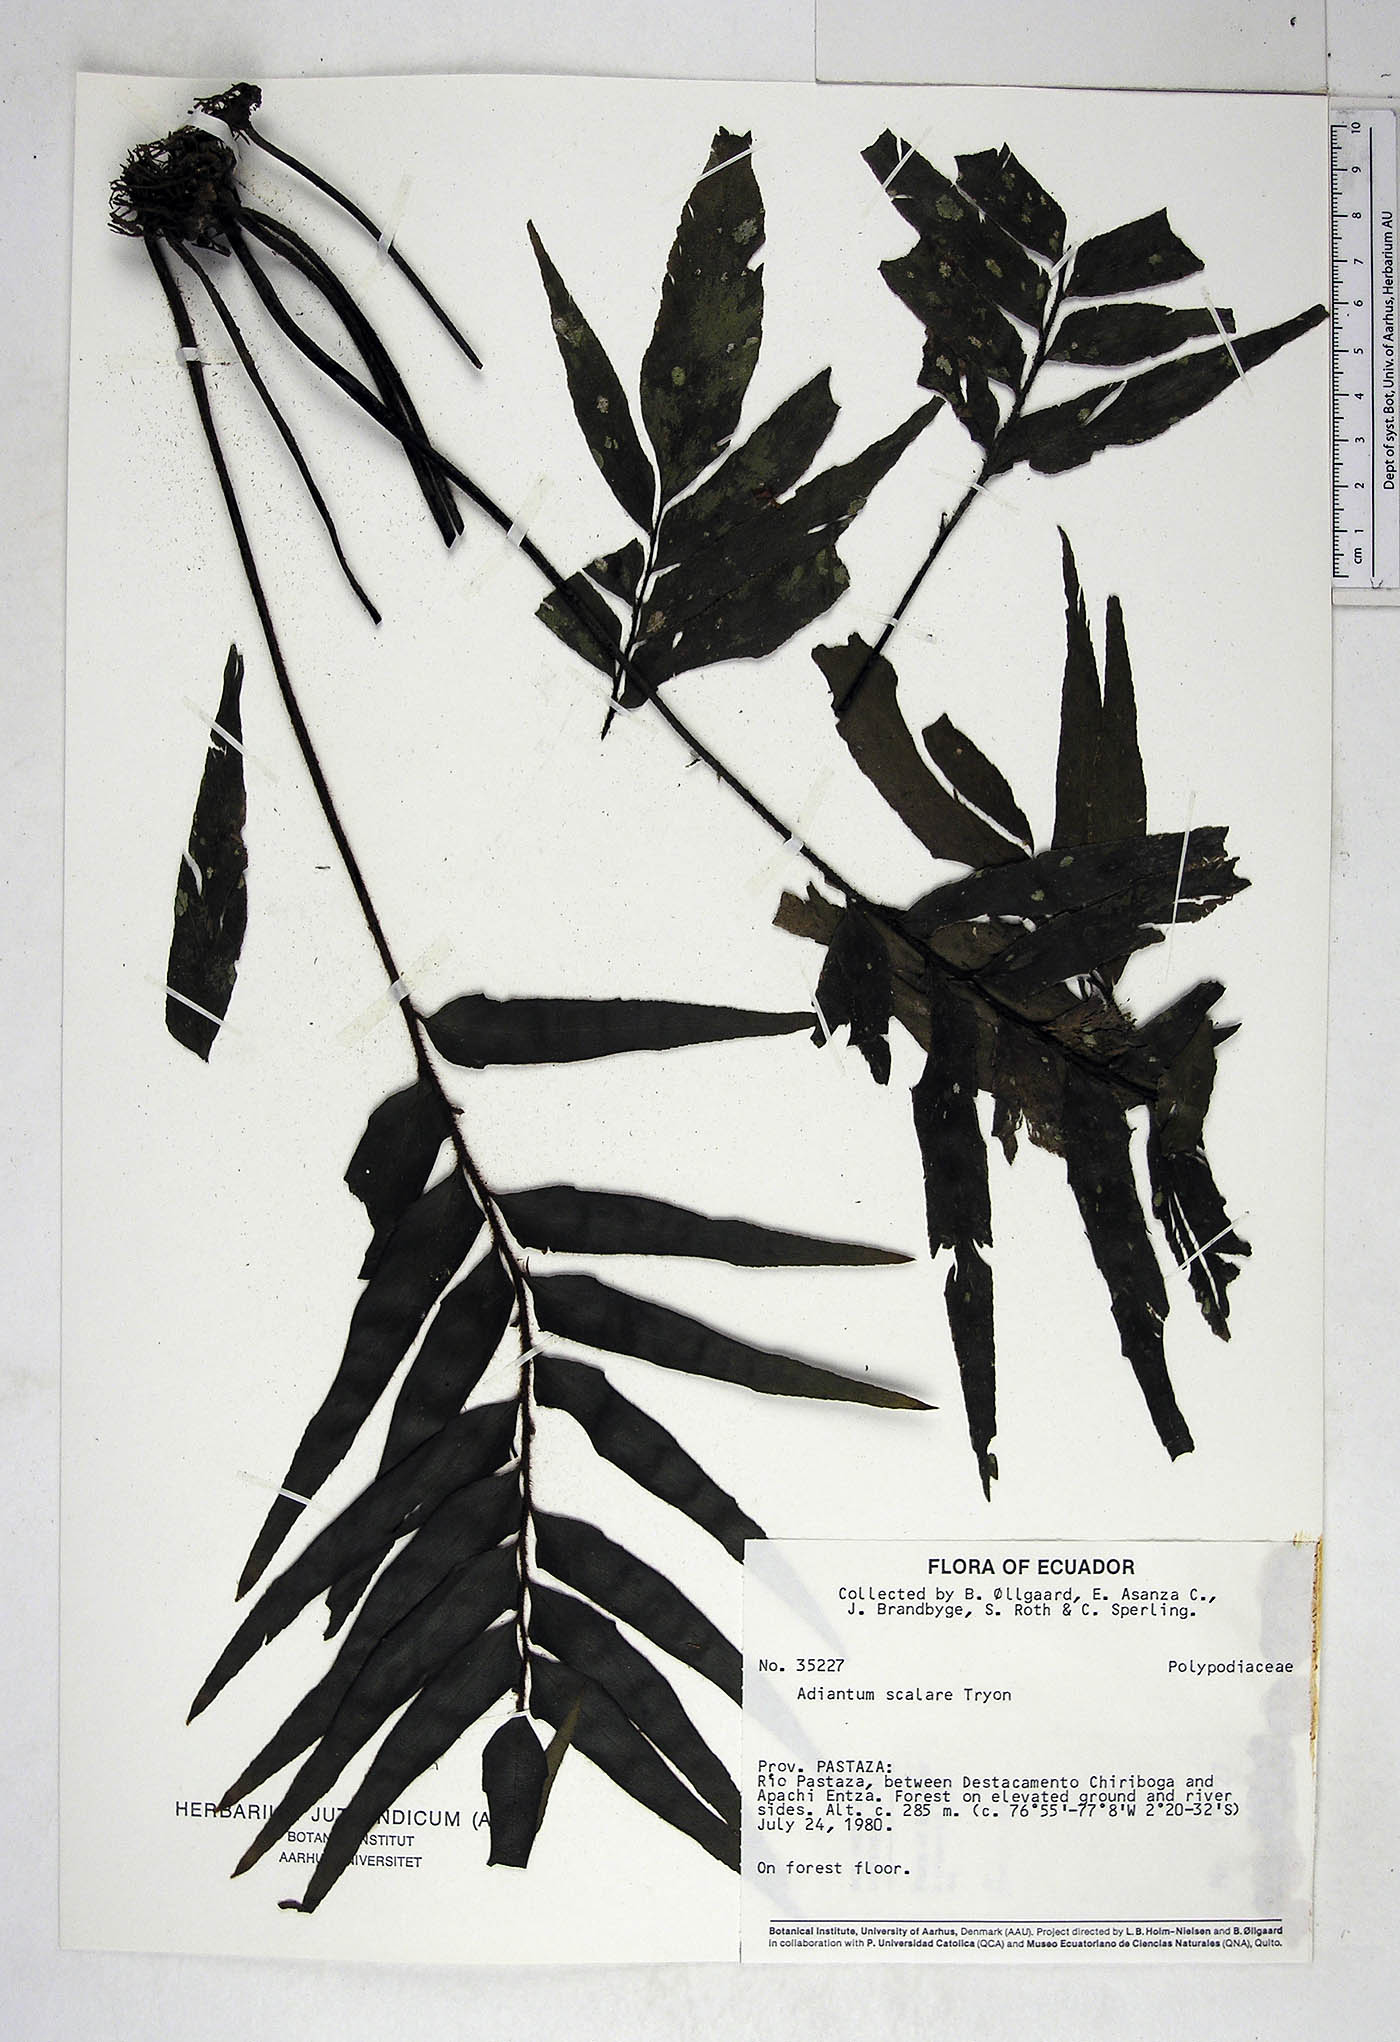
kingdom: Plantae
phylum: Tracheophyta
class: Polypodiopsida
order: Polypodiales
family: Pteridaceae
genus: Adiantum
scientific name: Adiantum scalare
